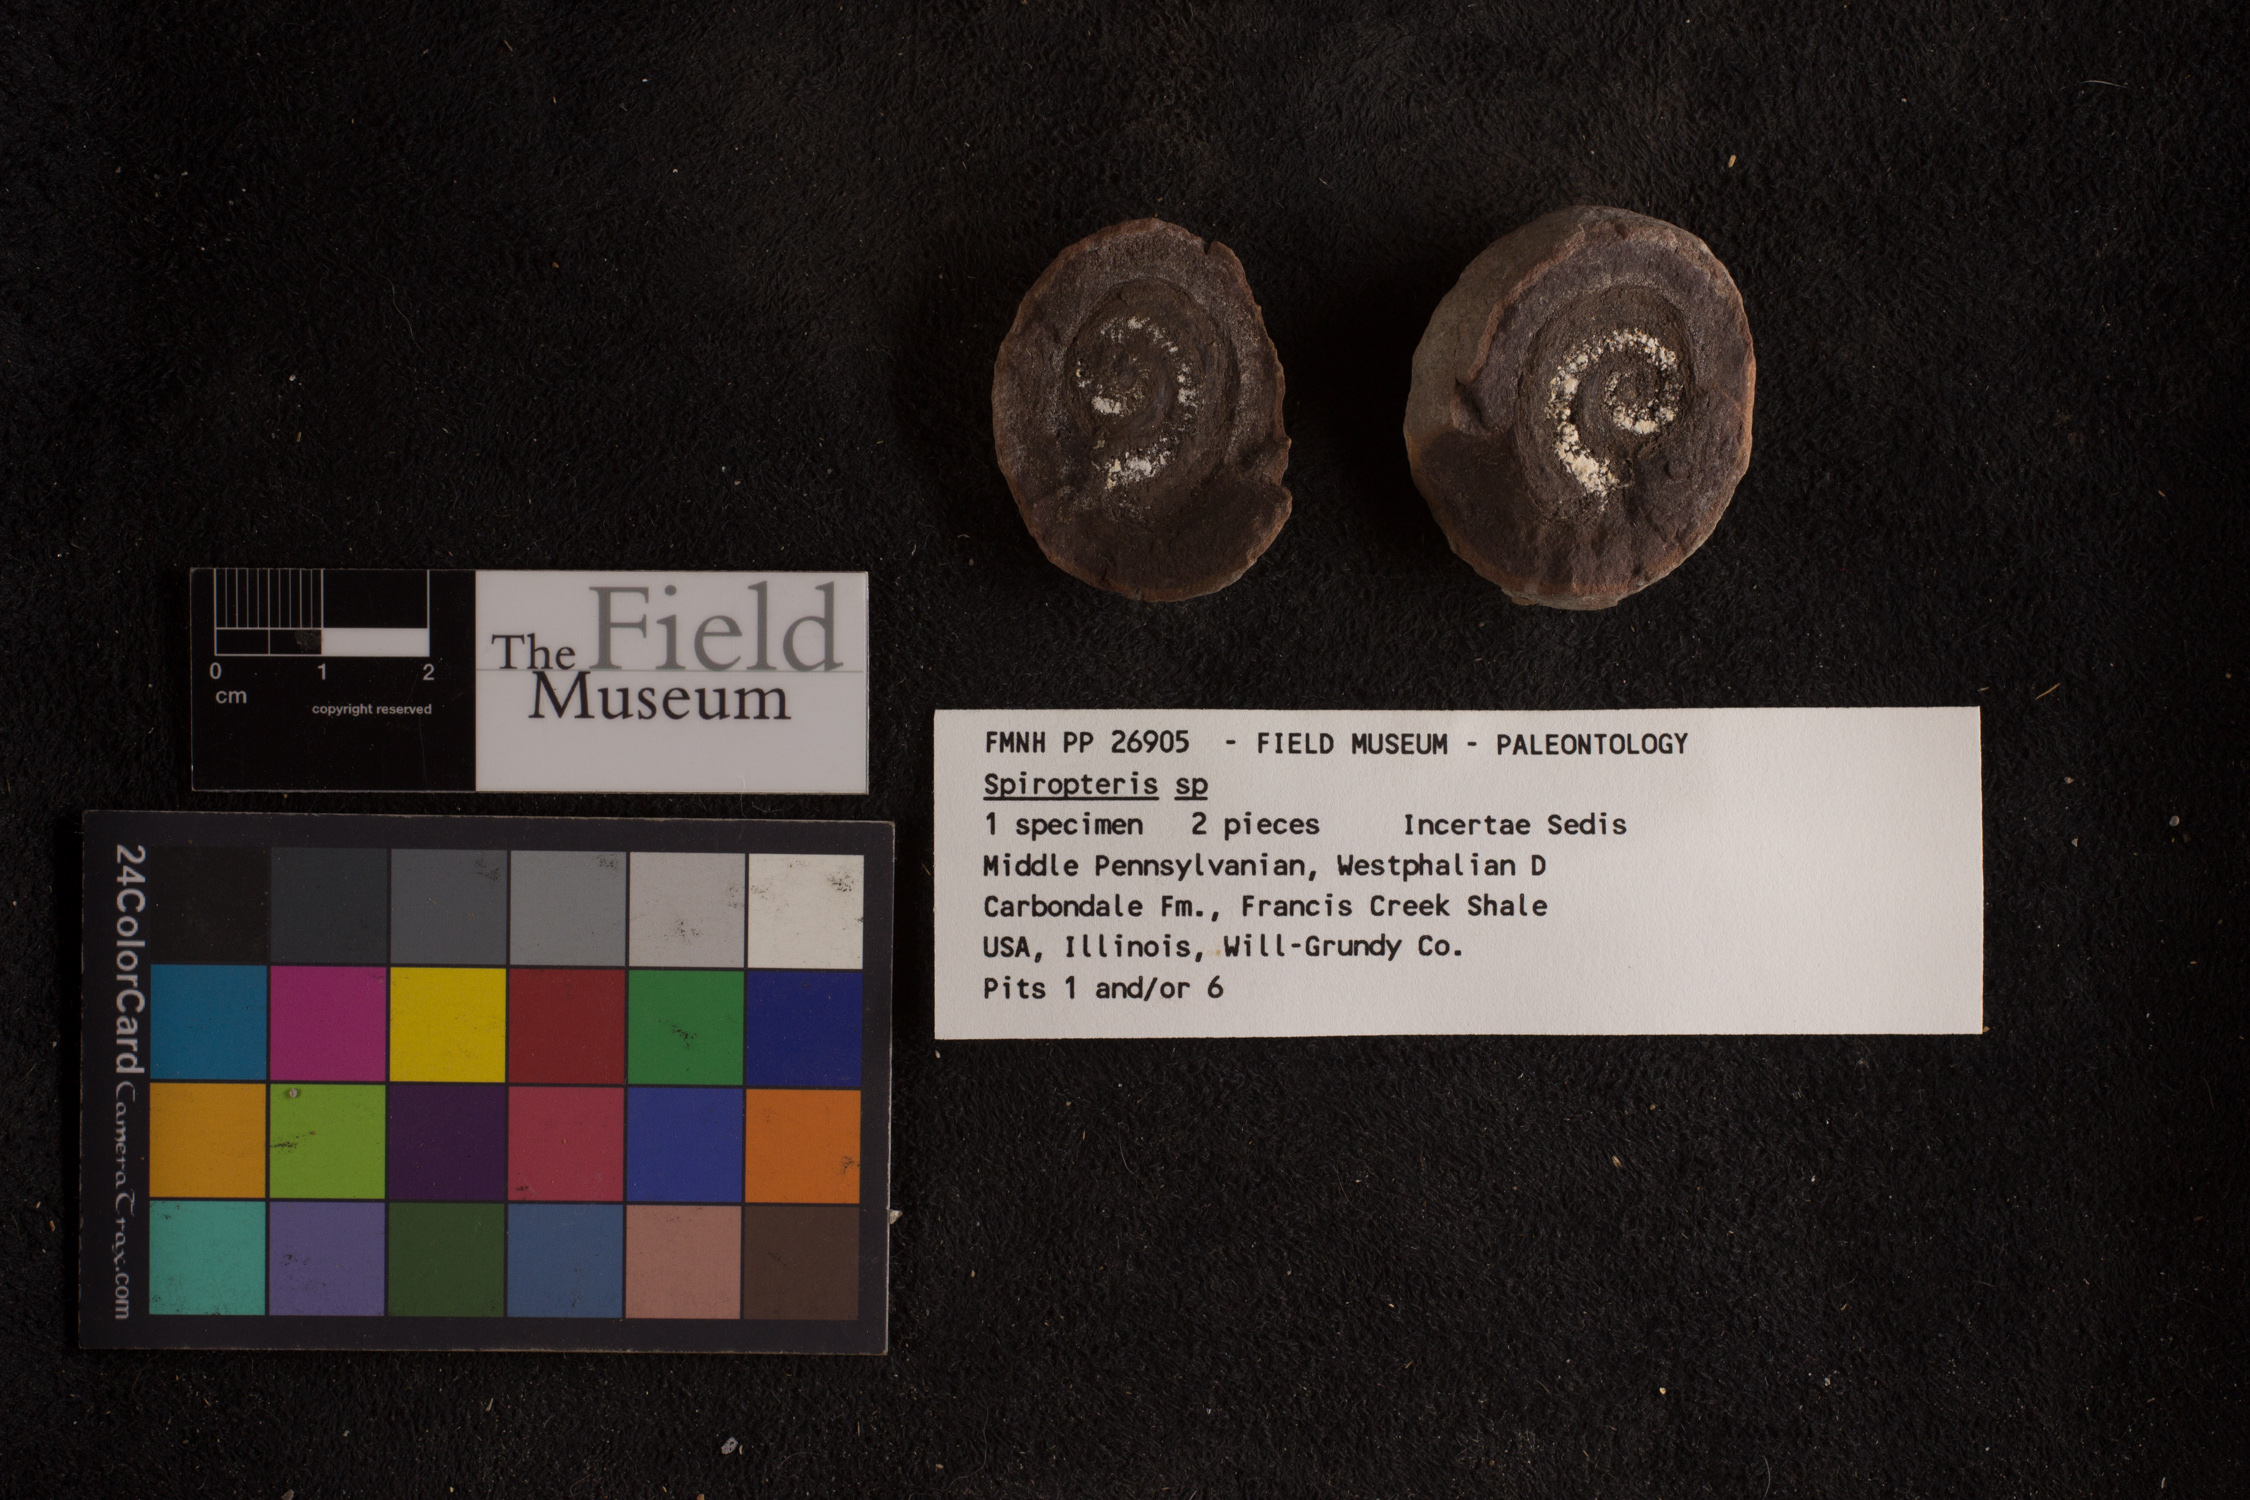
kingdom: Plantae
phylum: Tracheophyta
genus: Spiropteris
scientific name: Spiropteris
